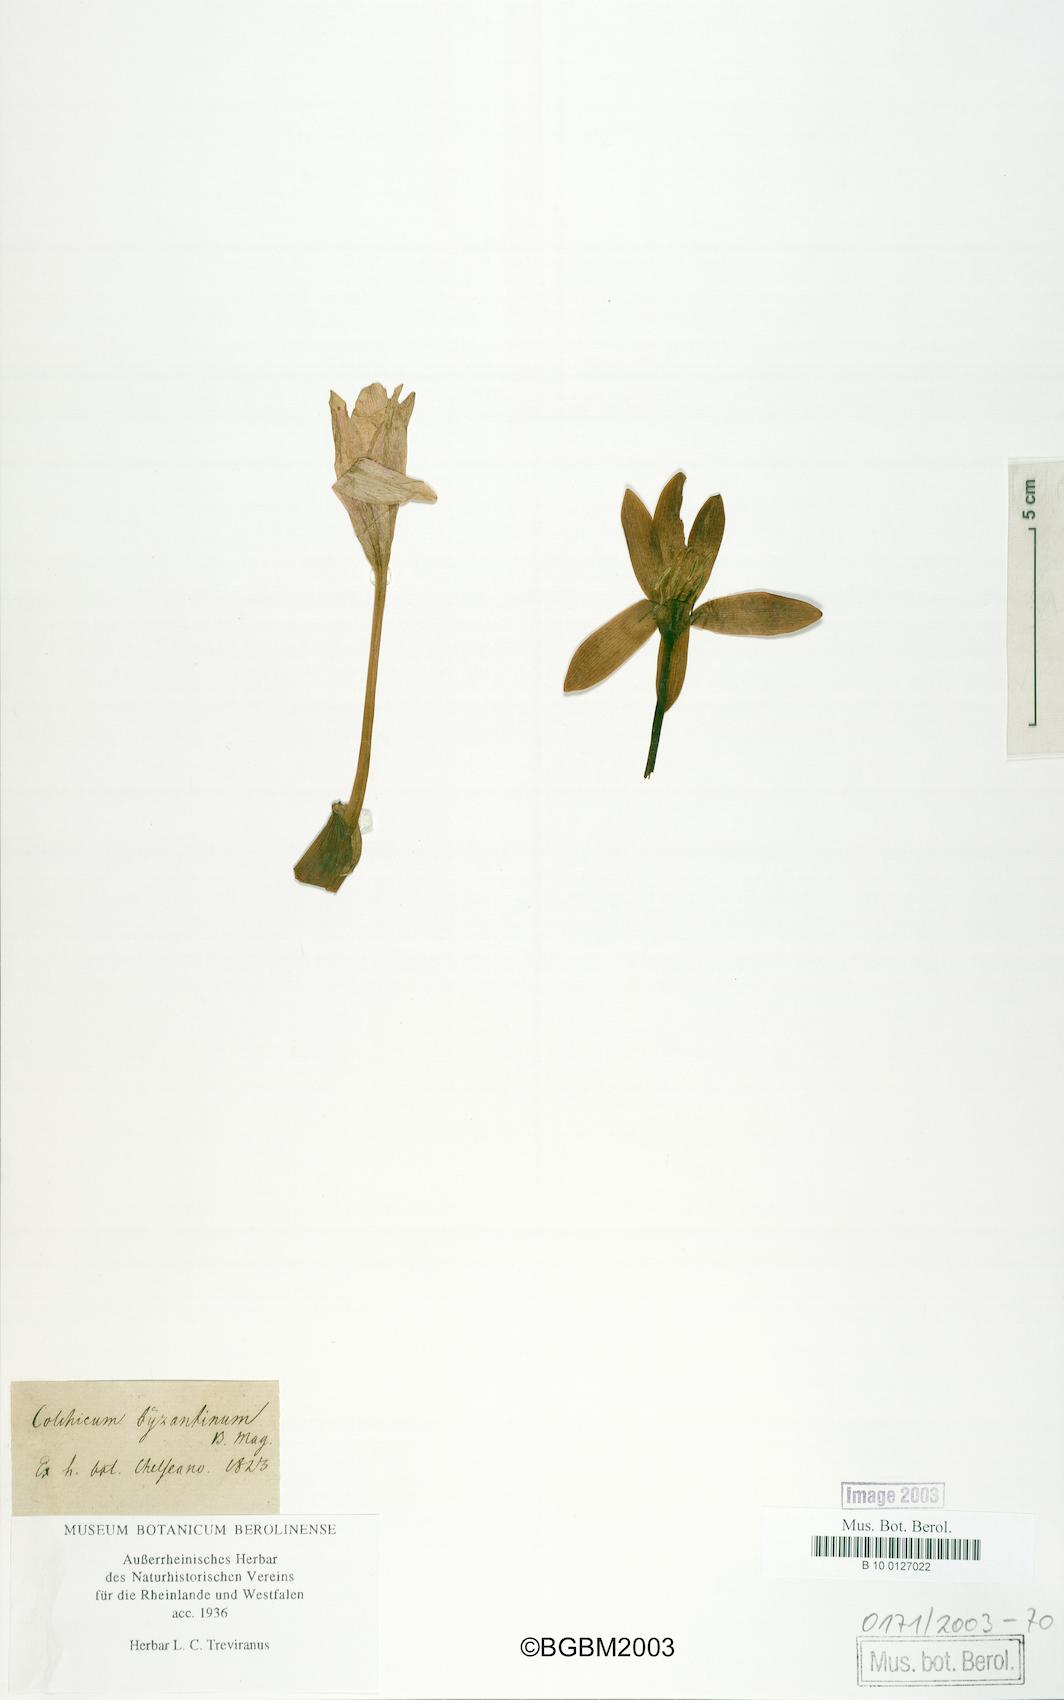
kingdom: Plantae
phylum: Tracheophyta
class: Liliopsida
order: Liliales
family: Colchicaceae
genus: Colchicum
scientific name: Colchicum byzantinum
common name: False autumn crocus
